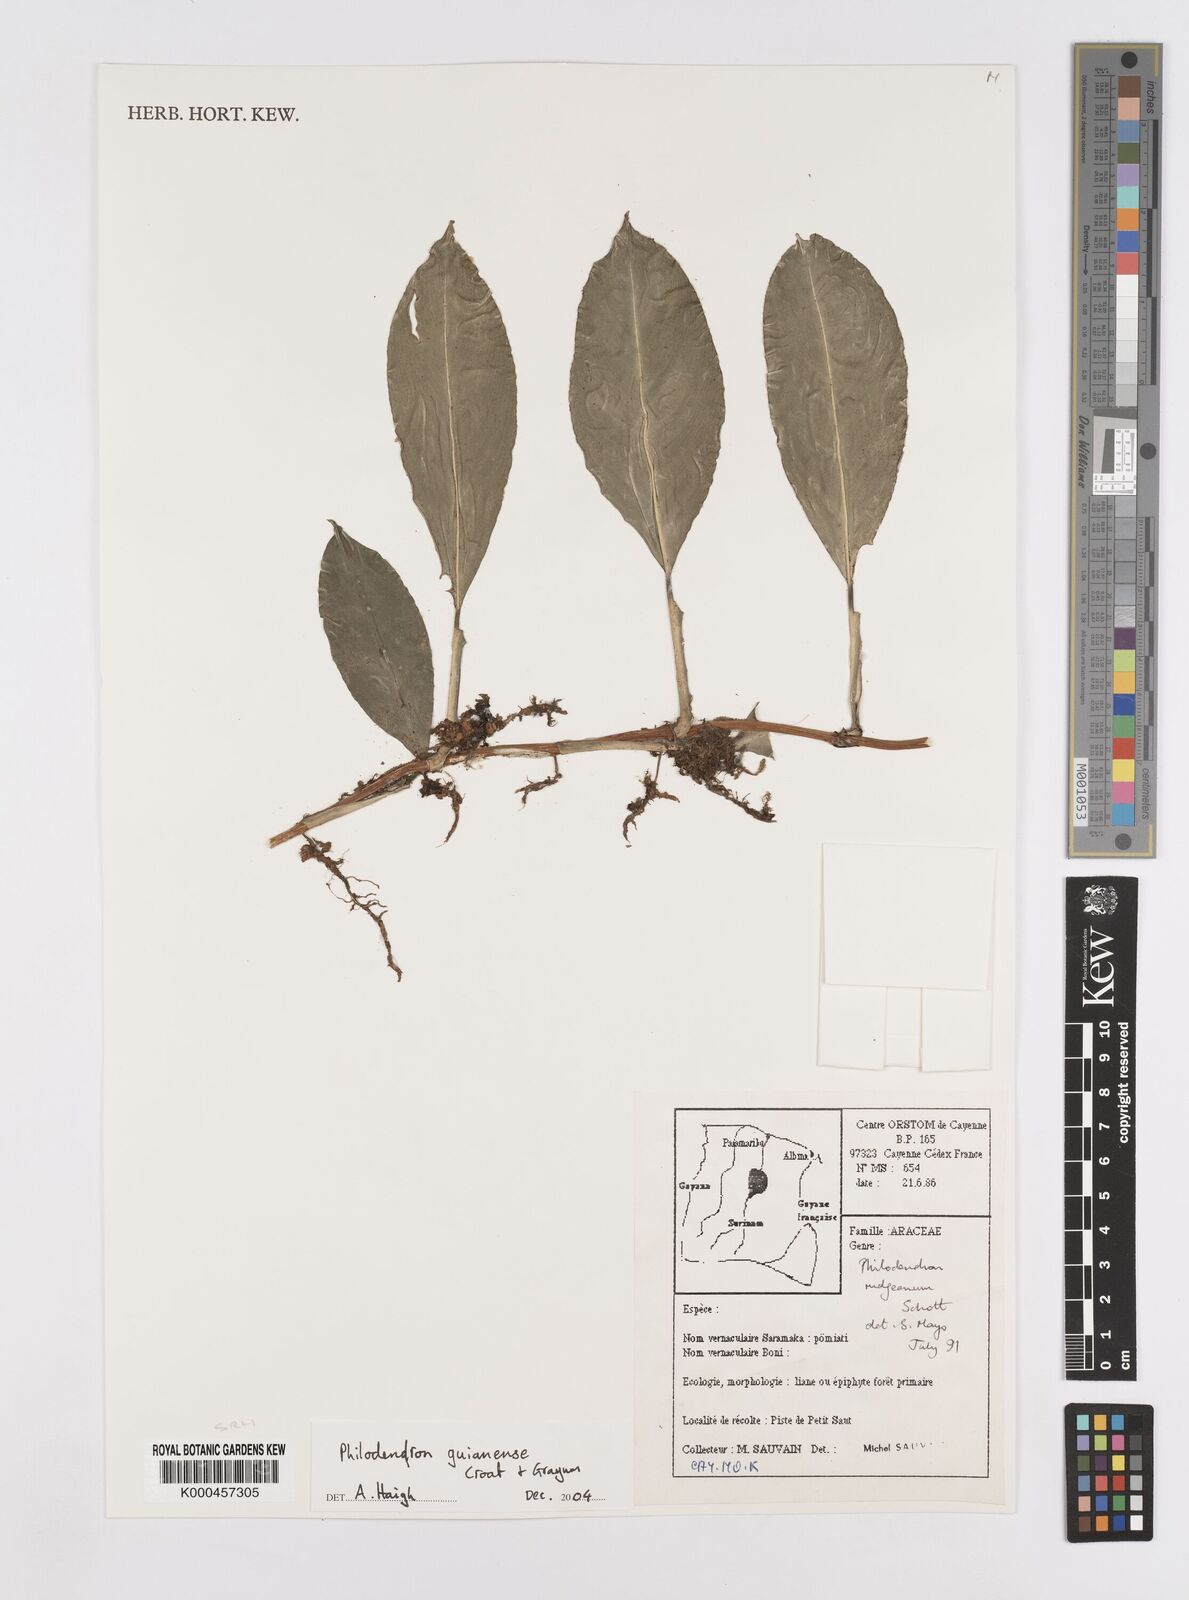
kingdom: Plantae
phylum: Tracheophyta
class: Liliopsida
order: Alismatales
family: Araceae
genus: Philodendron
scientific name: Philodendron guianense
